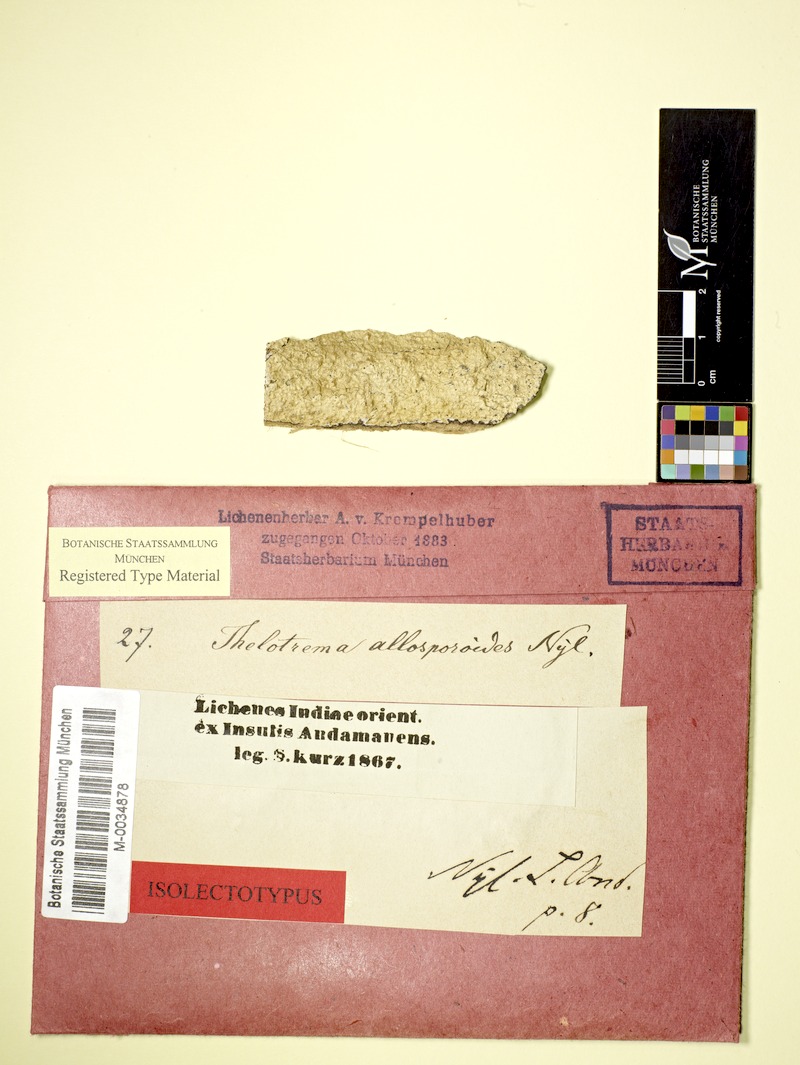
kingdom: Fungi
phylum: Ascomycota
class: Lecanoromycetes
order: Ostropales
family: Graphidaceae
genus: Thelotrema
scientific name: Thelotrema allosporoides
